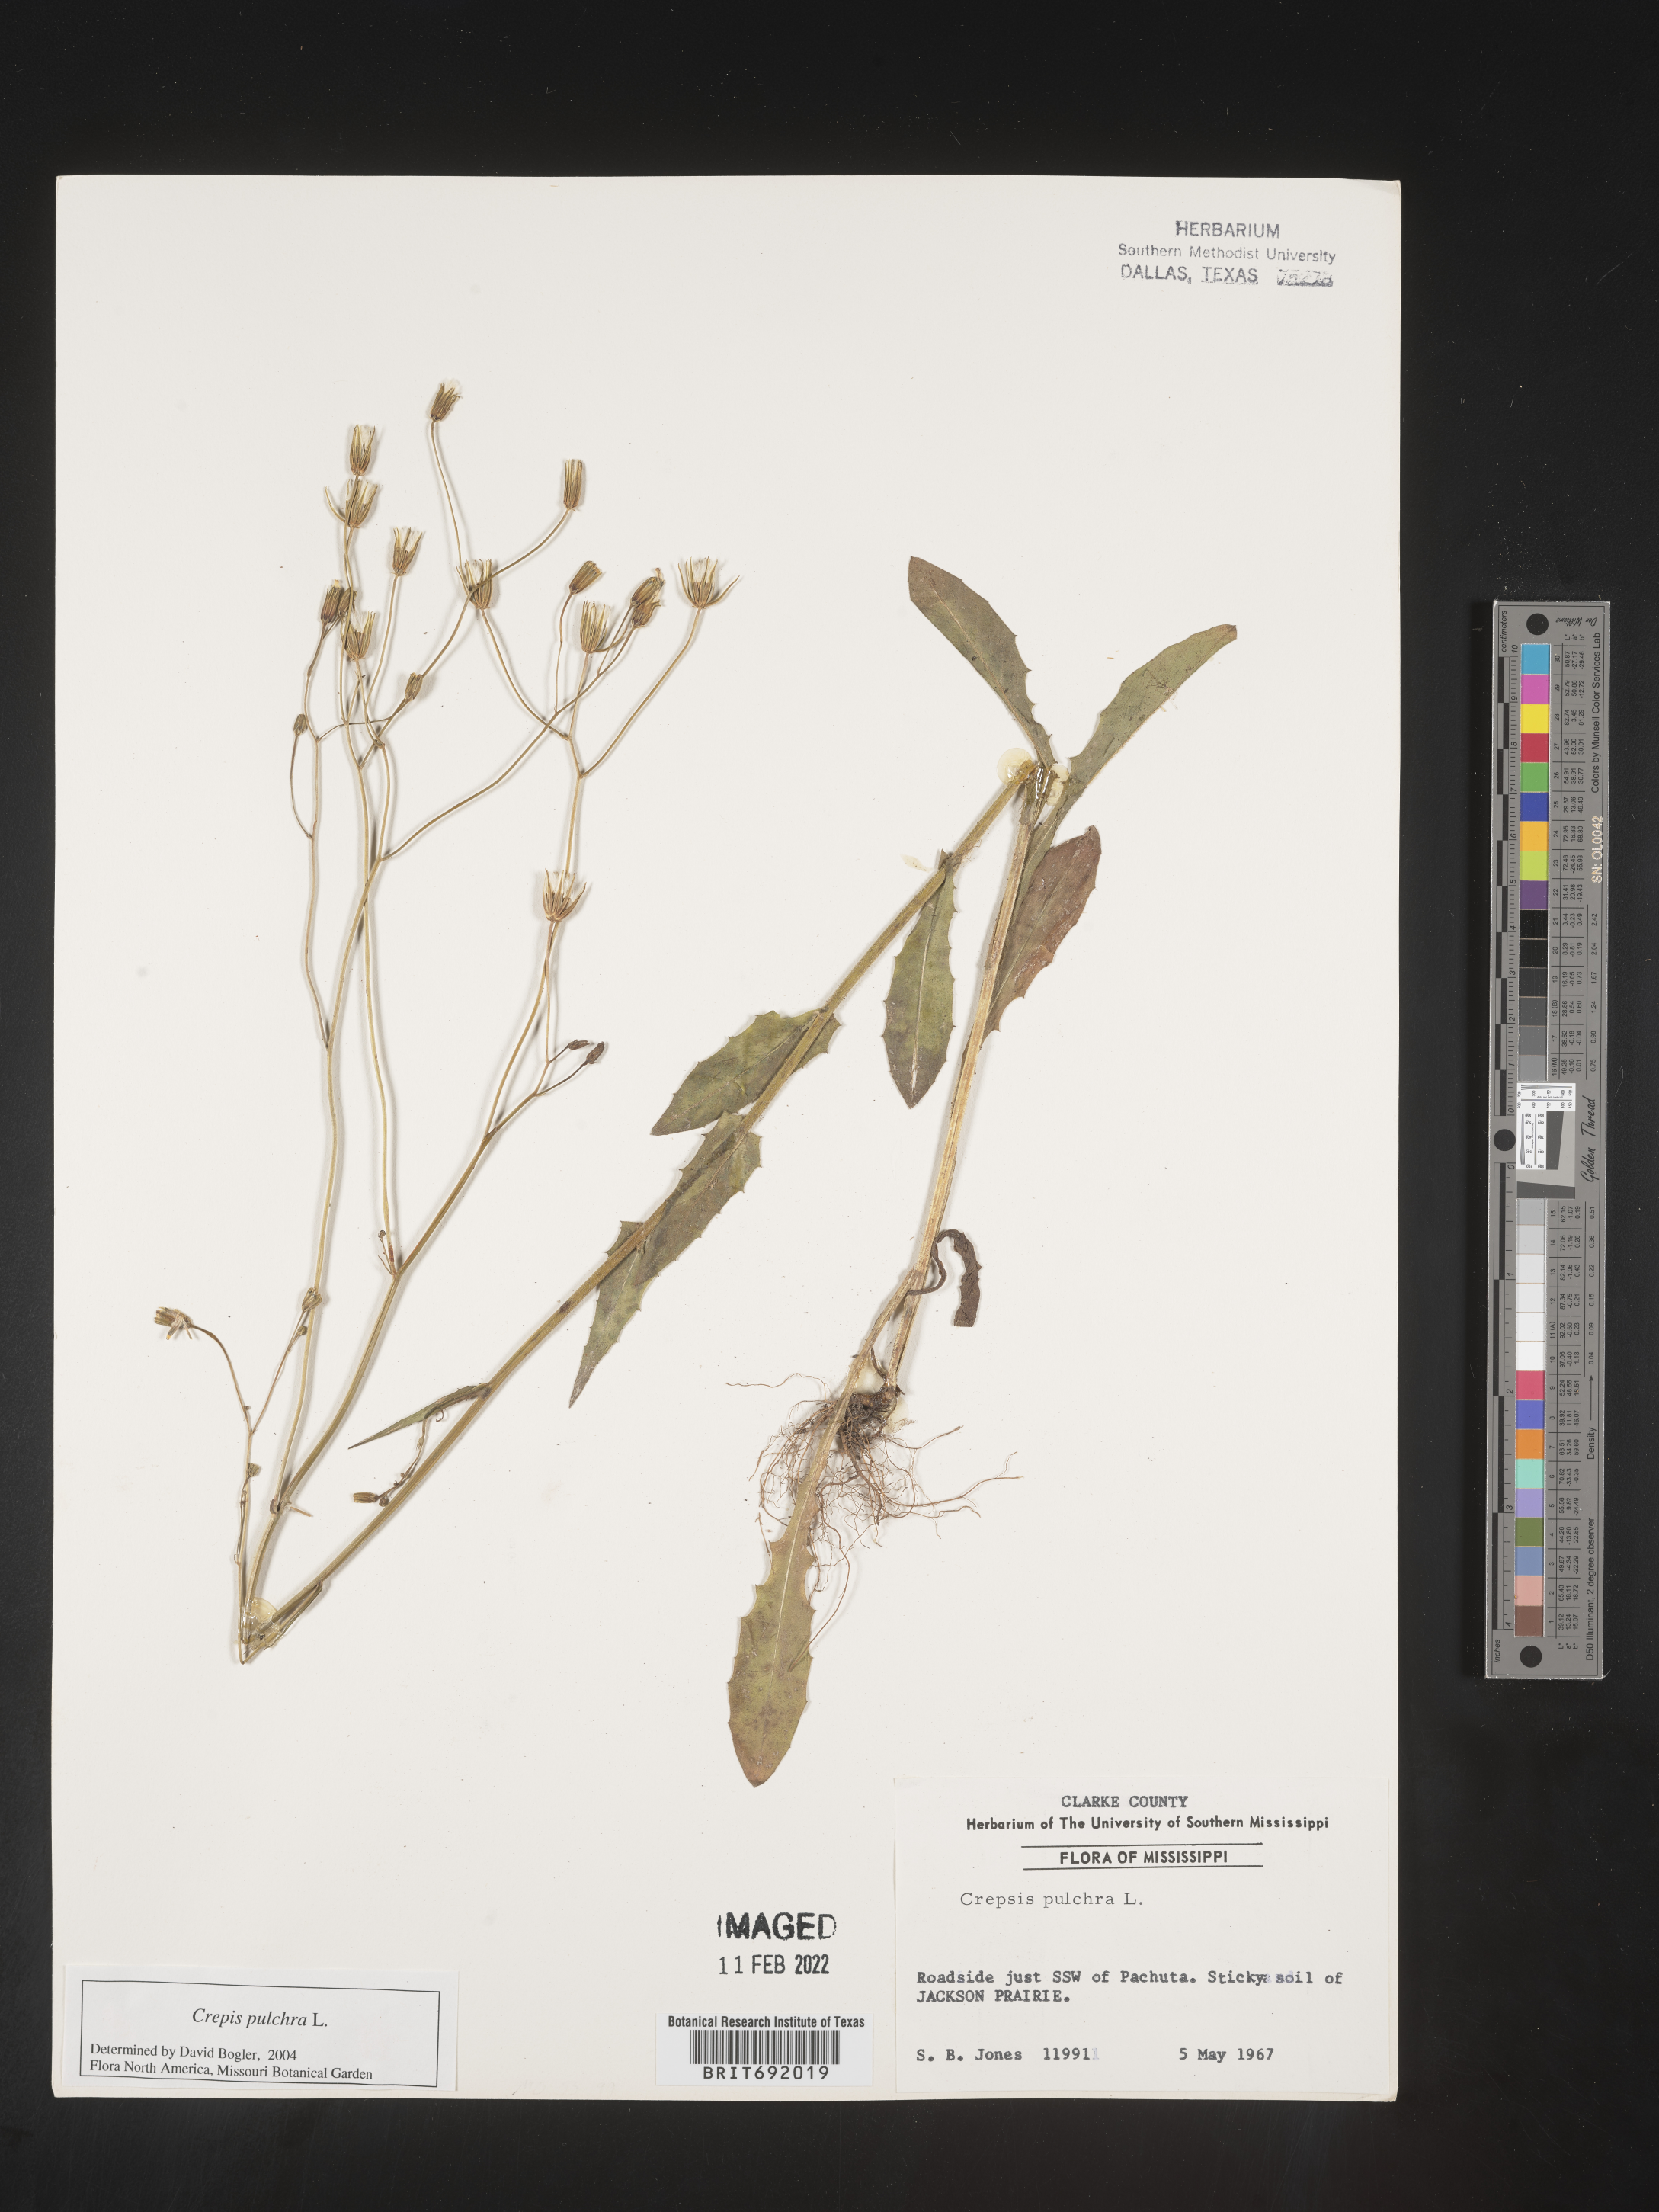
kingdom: Plantae
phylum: Tracheophyta
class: Magnoliopsida
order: Asterales
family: Asteraceae
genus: Crepis
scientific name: Crepis pulchra
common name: Hawk's-beard
